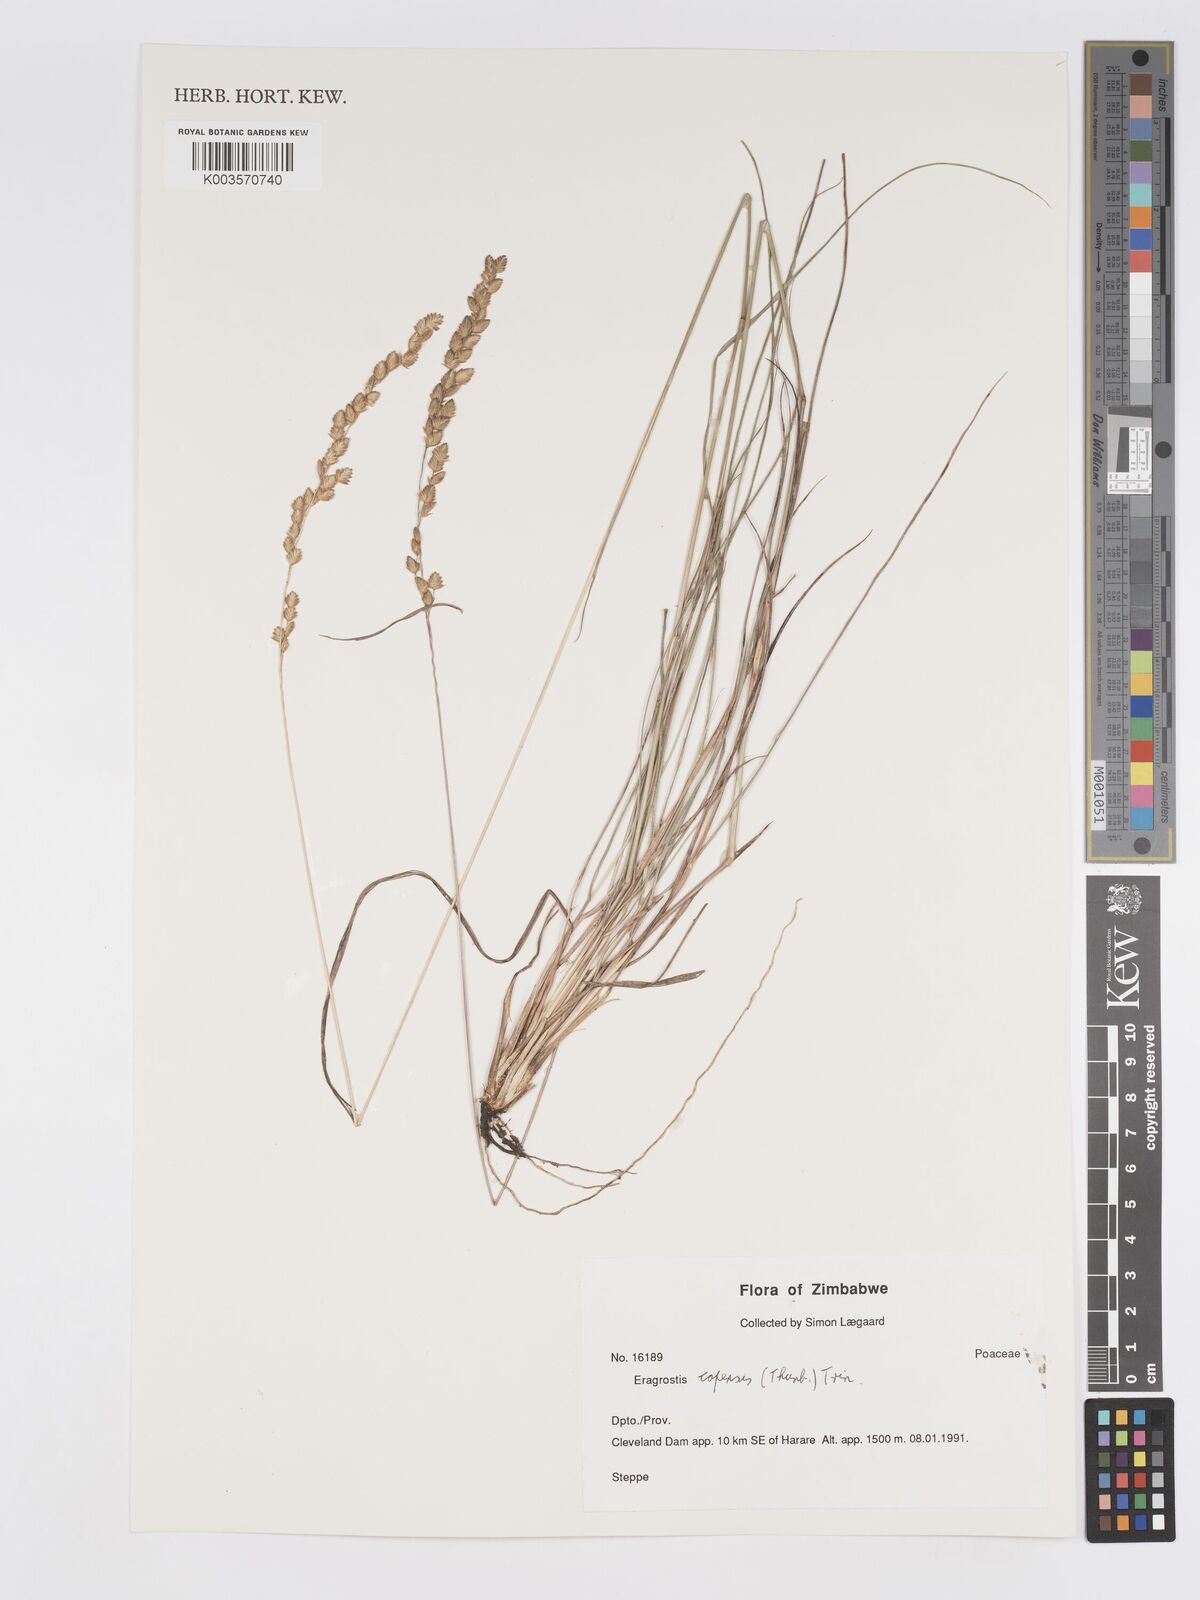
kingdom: Plantae
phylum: Tracheophyta
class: Liliopsida
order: Poales
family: Poaceae
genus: Eragrostis
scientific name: Eragrostis capensis
